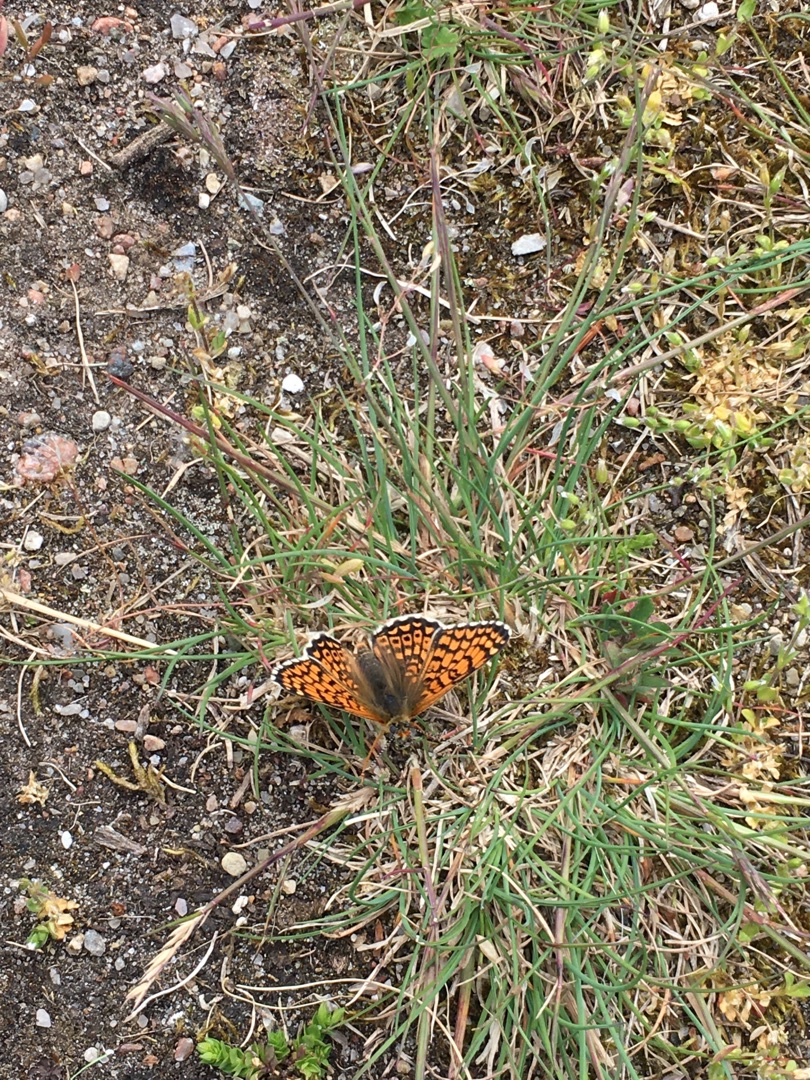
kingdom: Animalia
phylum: Arthropoda
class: Insecta
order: Lepidoptera
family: Nymphalidae
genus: Melitaea
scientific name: Melitaea cinxia
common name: Okkergul pletvinge
